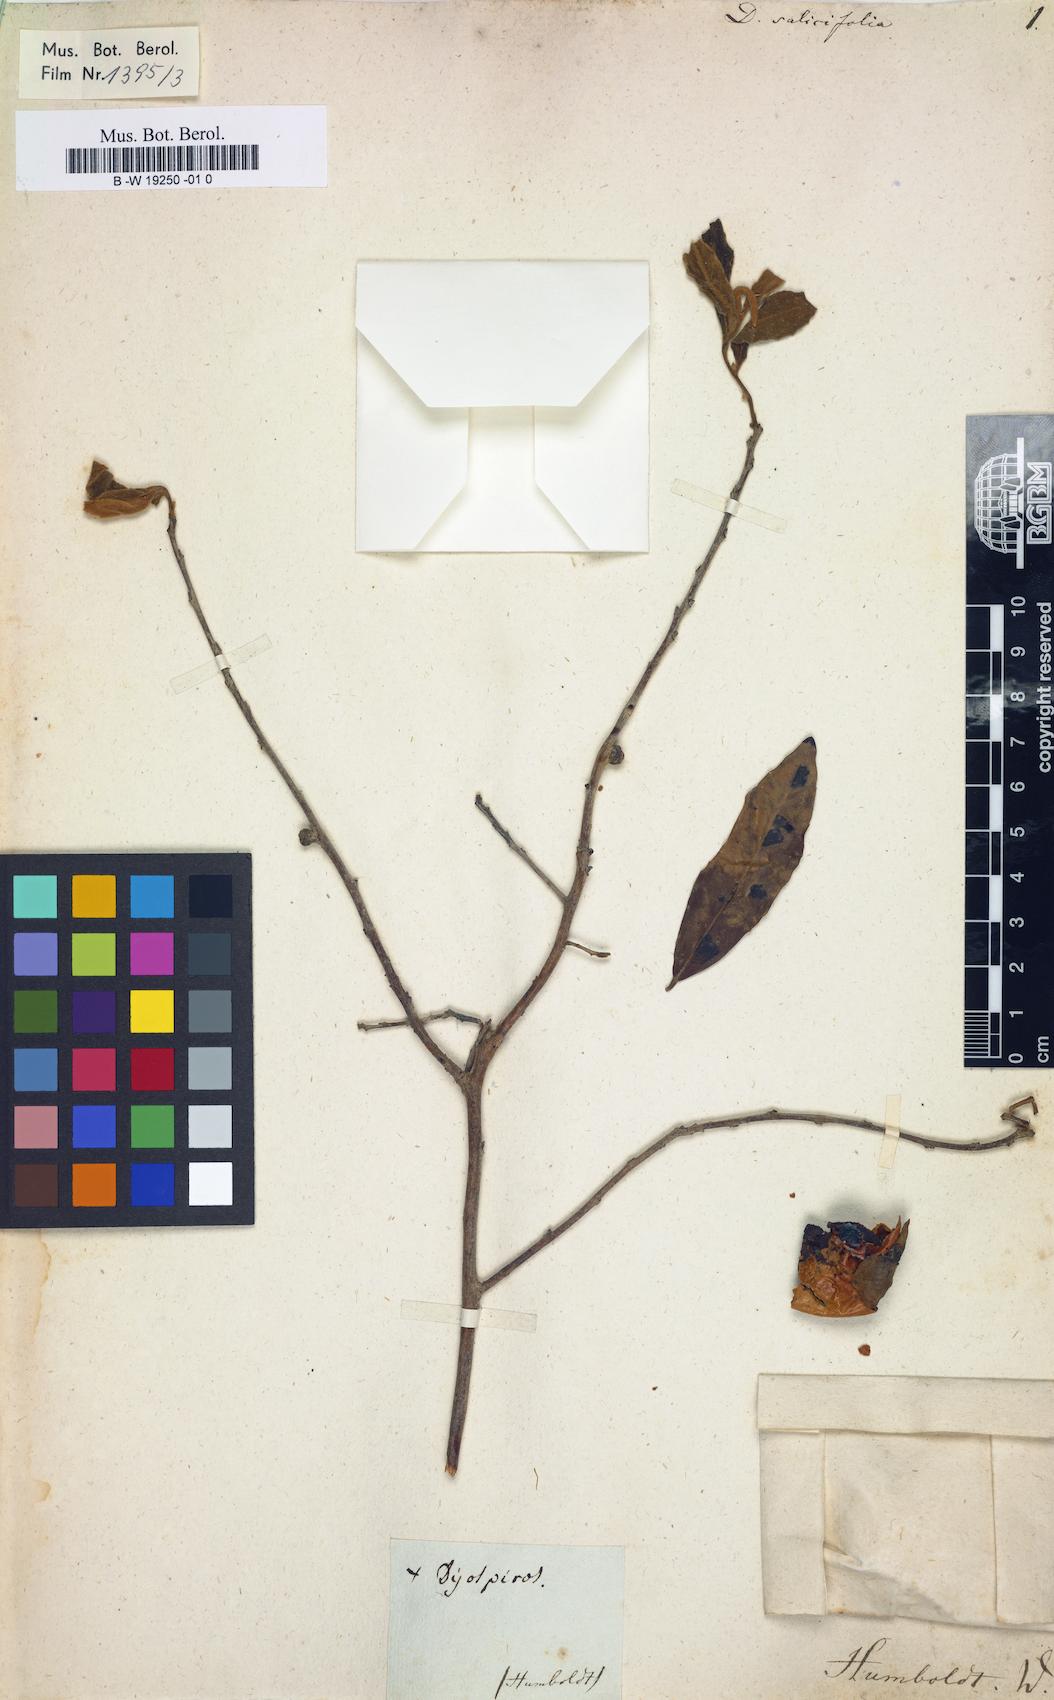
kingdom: Plantae
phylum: Tracheophyta
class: Magnoliopsida
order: Ericales
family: Ebenaceae
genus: Diospyros
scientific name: Diospyros salicifolia
